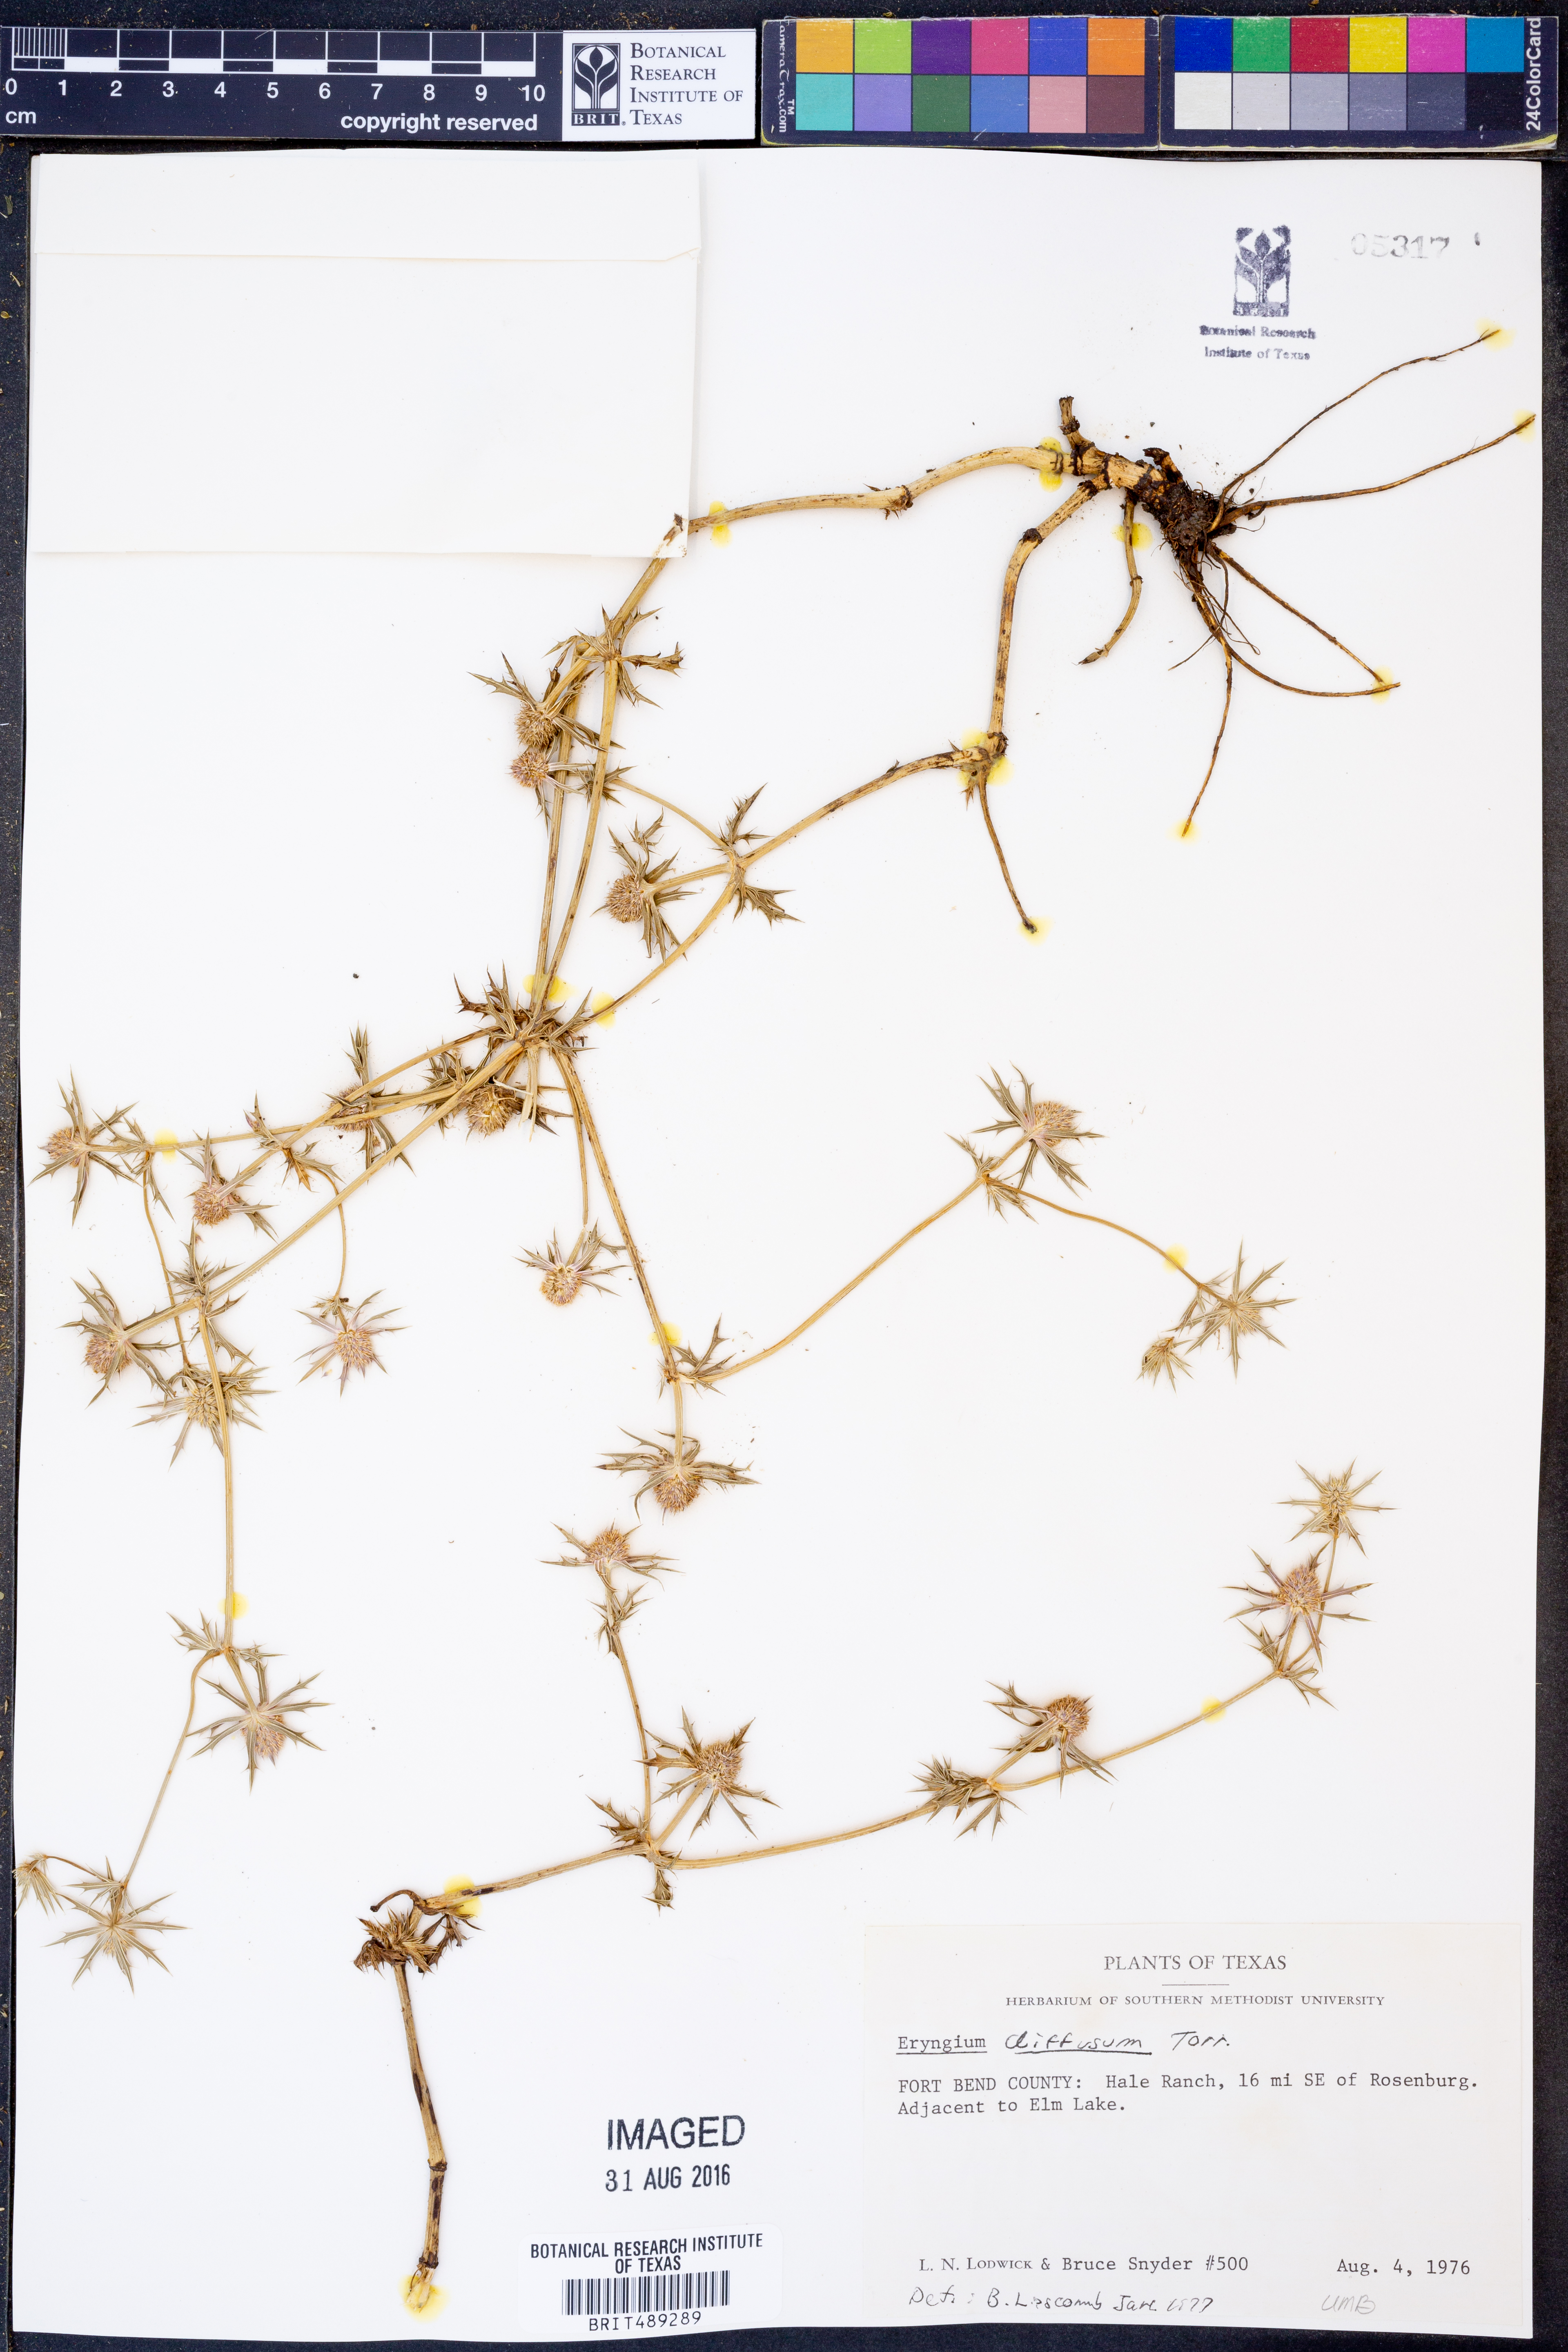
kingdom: Plantae
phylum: Tracheophyta
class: Magnoliopsida
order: Apiales
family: Apiaceae
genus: Eryngium
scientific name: Eryngium diffusum
